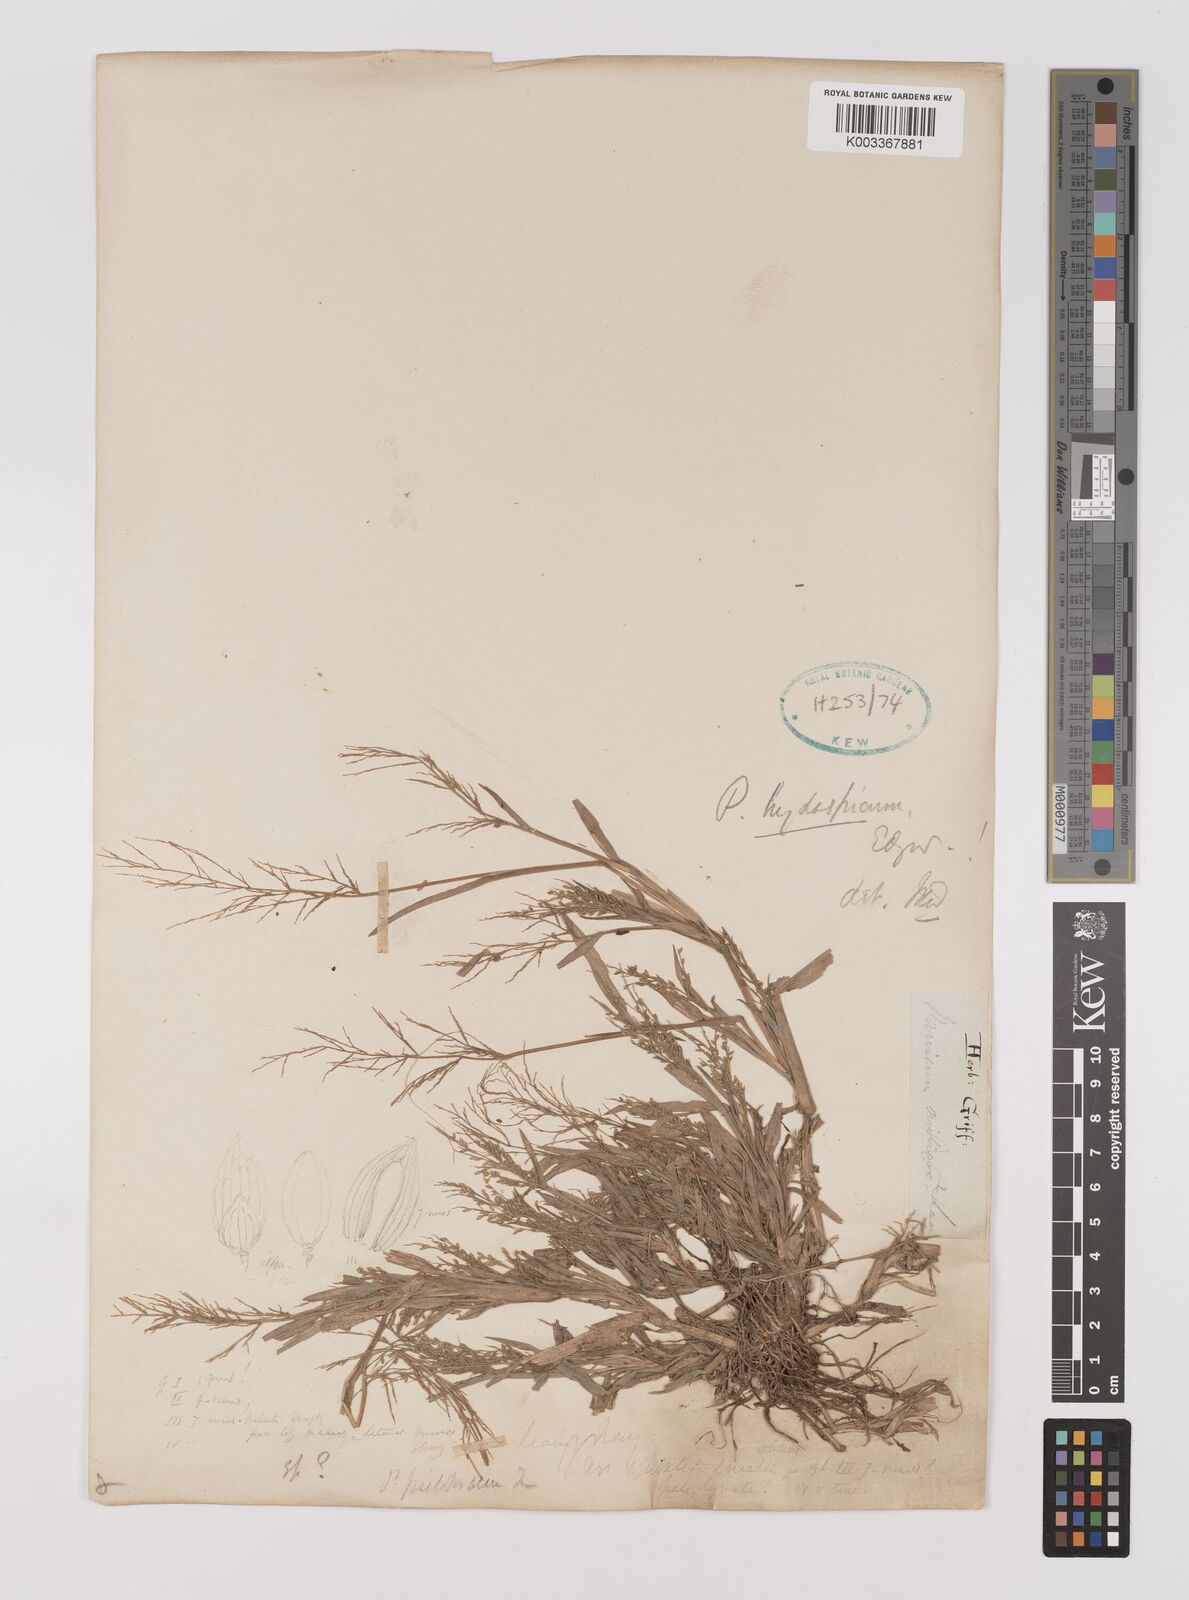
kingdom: Plantae
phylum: Tracheophyta
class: Liliopsida
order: Poales
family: Poaceae
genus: Panicum
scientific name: Panicum atrosanguineum
